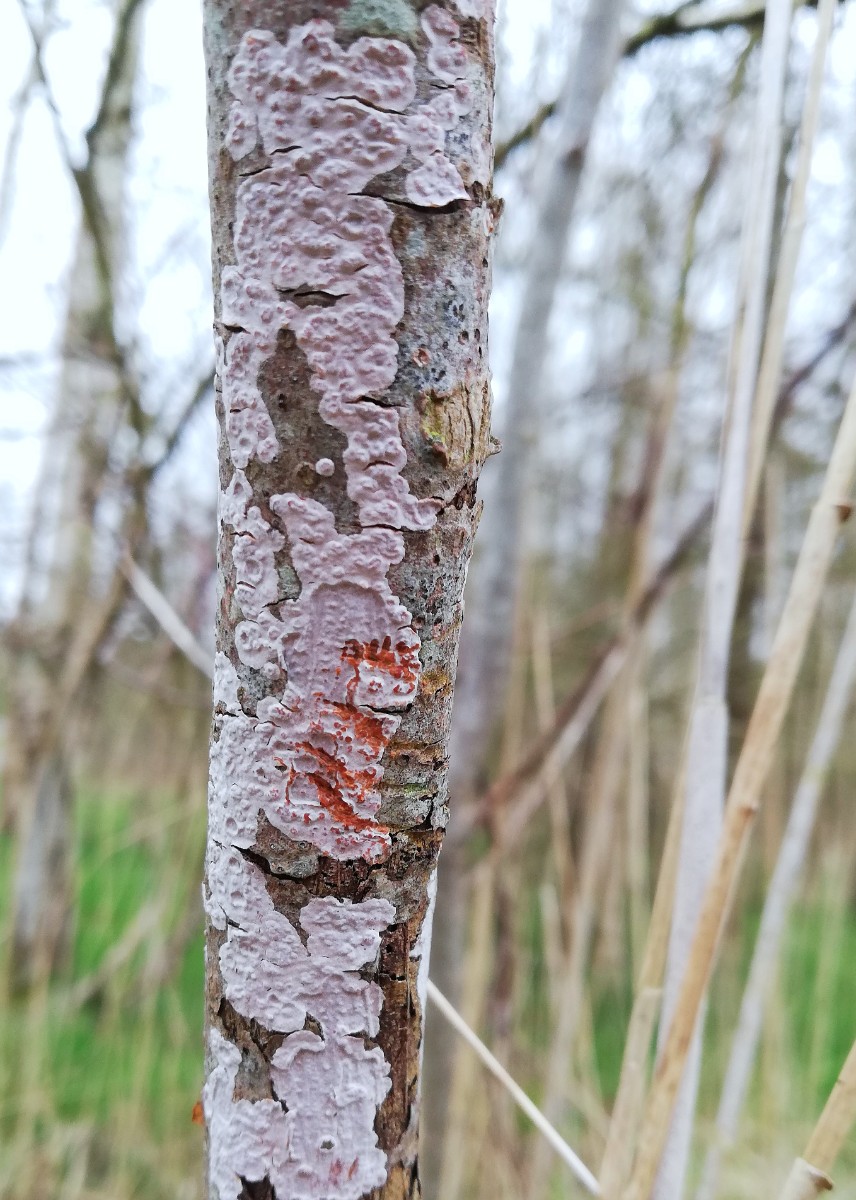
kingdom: Fungi
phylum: Basidiomycota
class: Agaricomycetes
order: Russulales
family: Peniophoraceae
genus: Peniophora
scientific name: Peniophora polygonia
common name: polygon-voksskind
